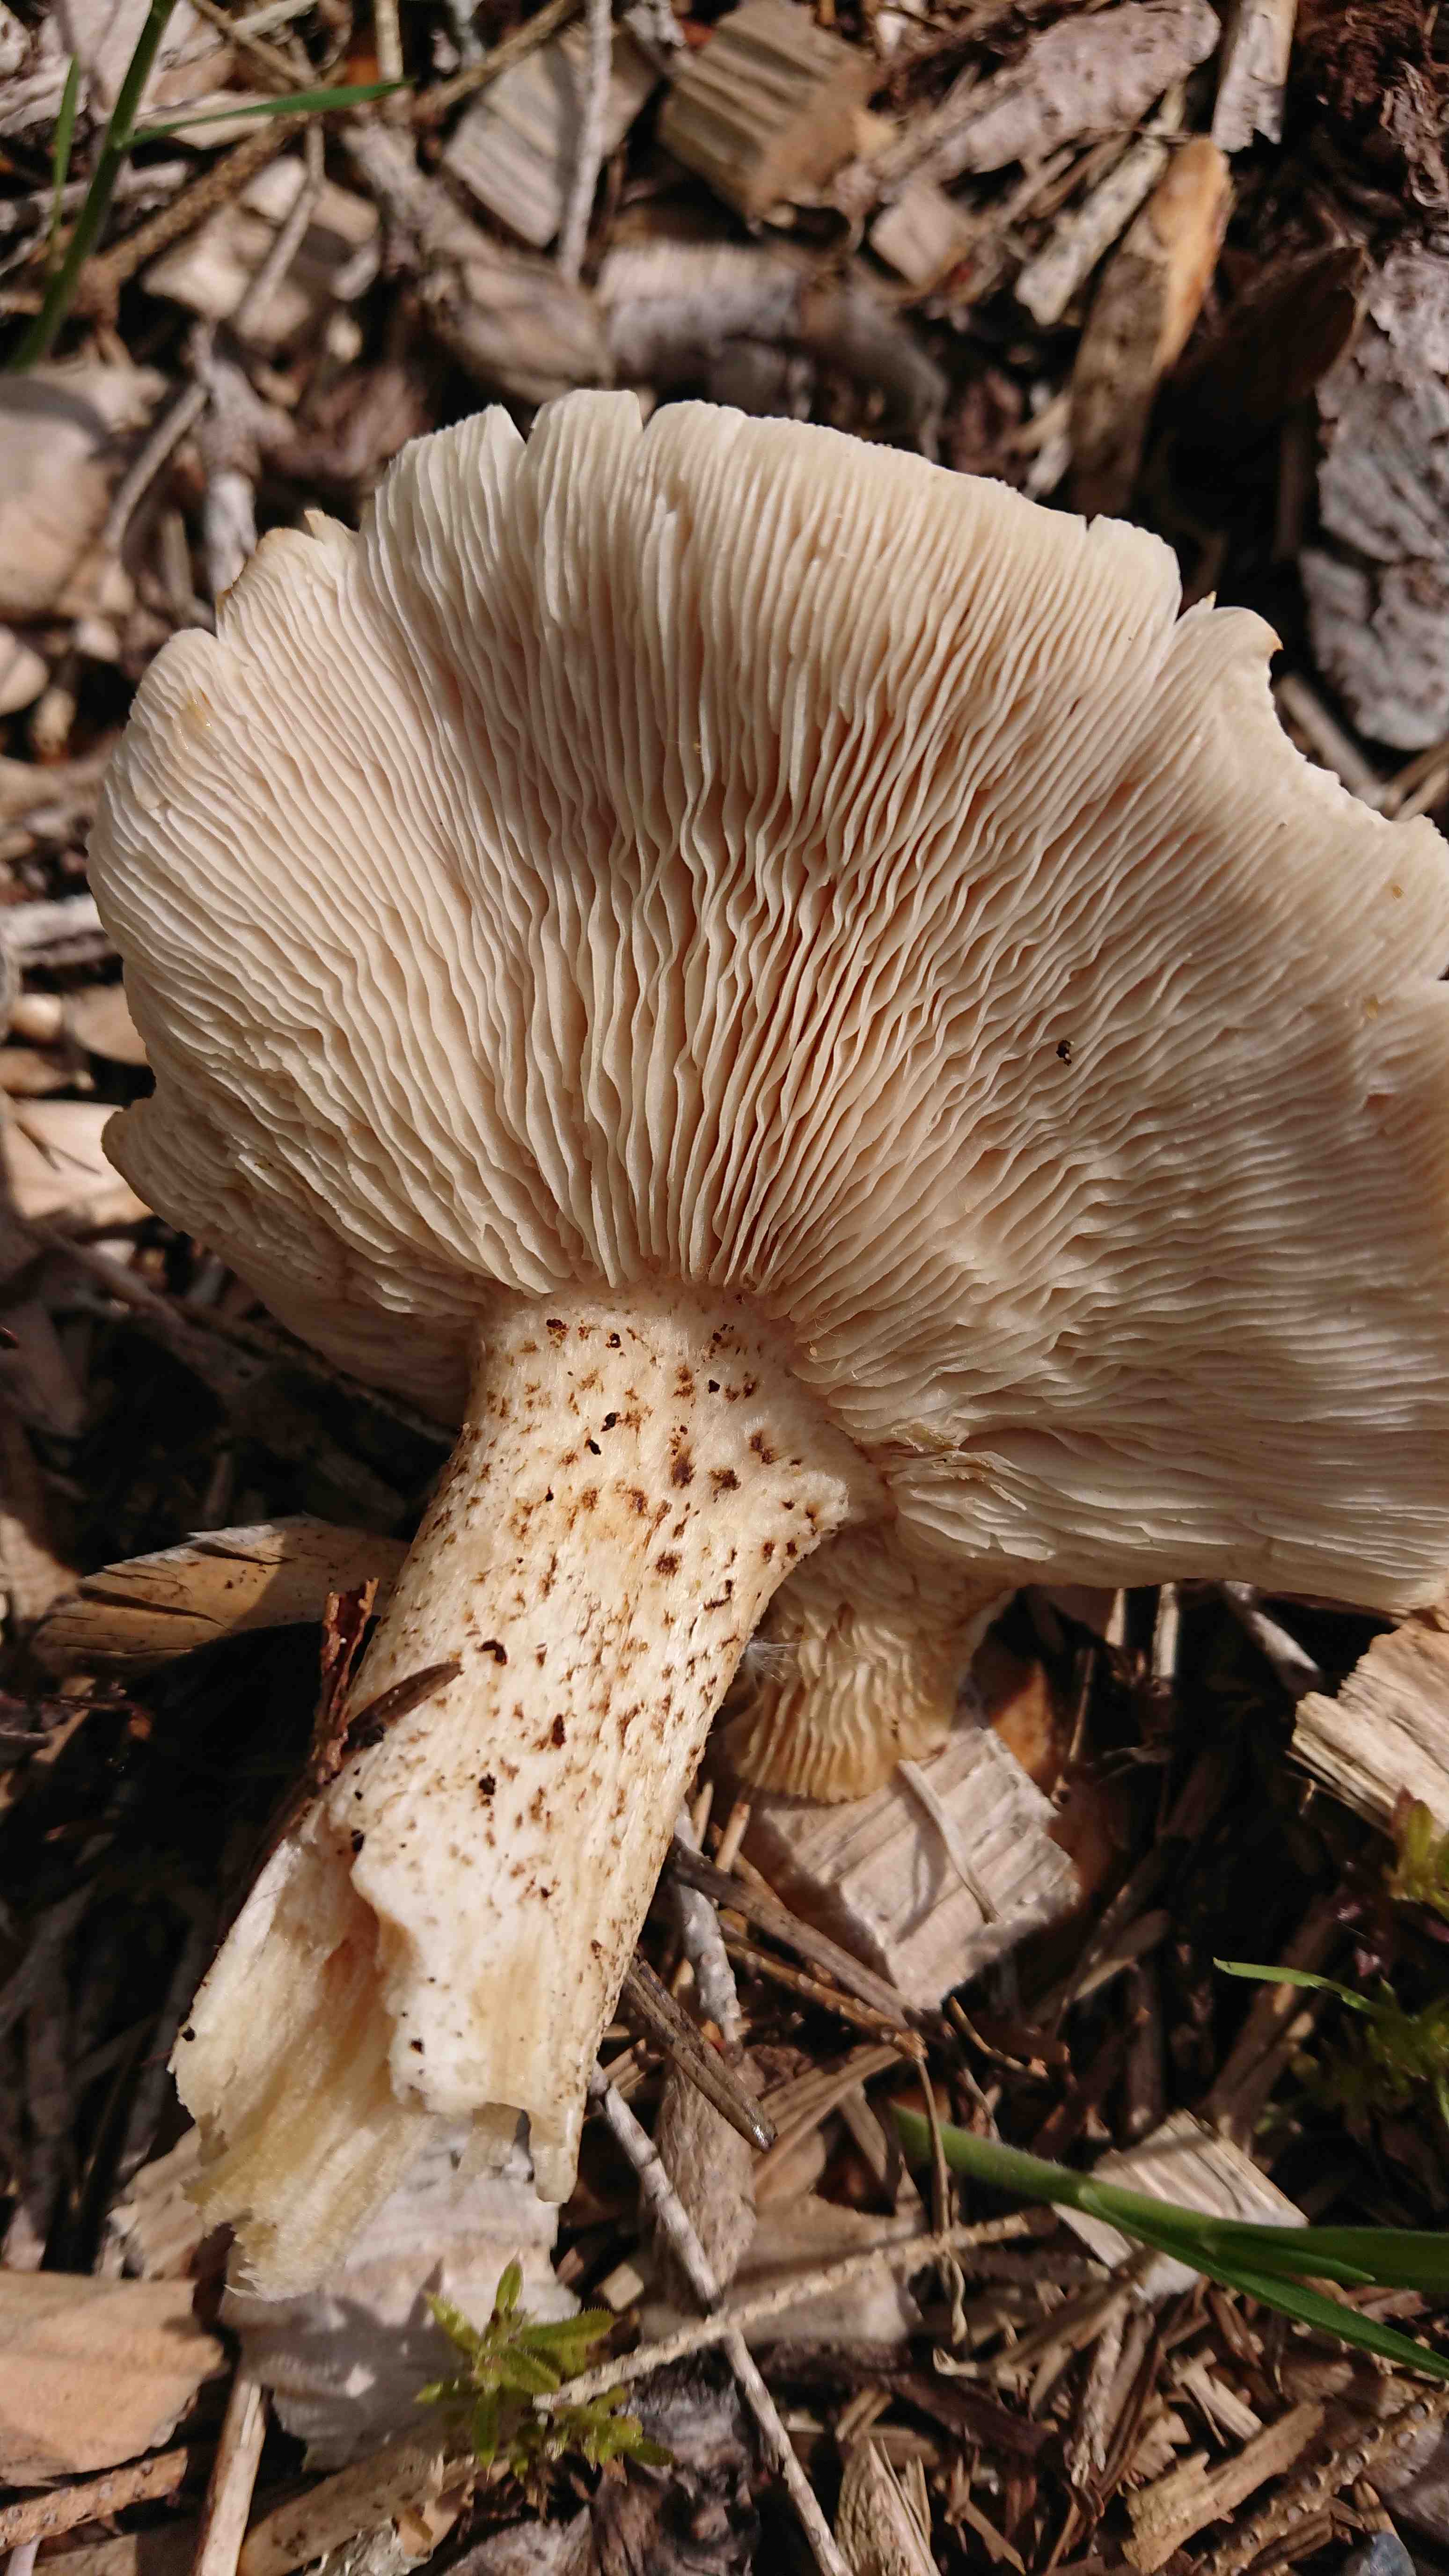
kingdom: Fungi
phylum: Basidiomycota
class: Agaricomycetes
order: Agaricales
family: Tricholomataceae
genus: Melanoleuca
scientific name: Melanoleuca verrucipes
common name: rufodet munkehat
